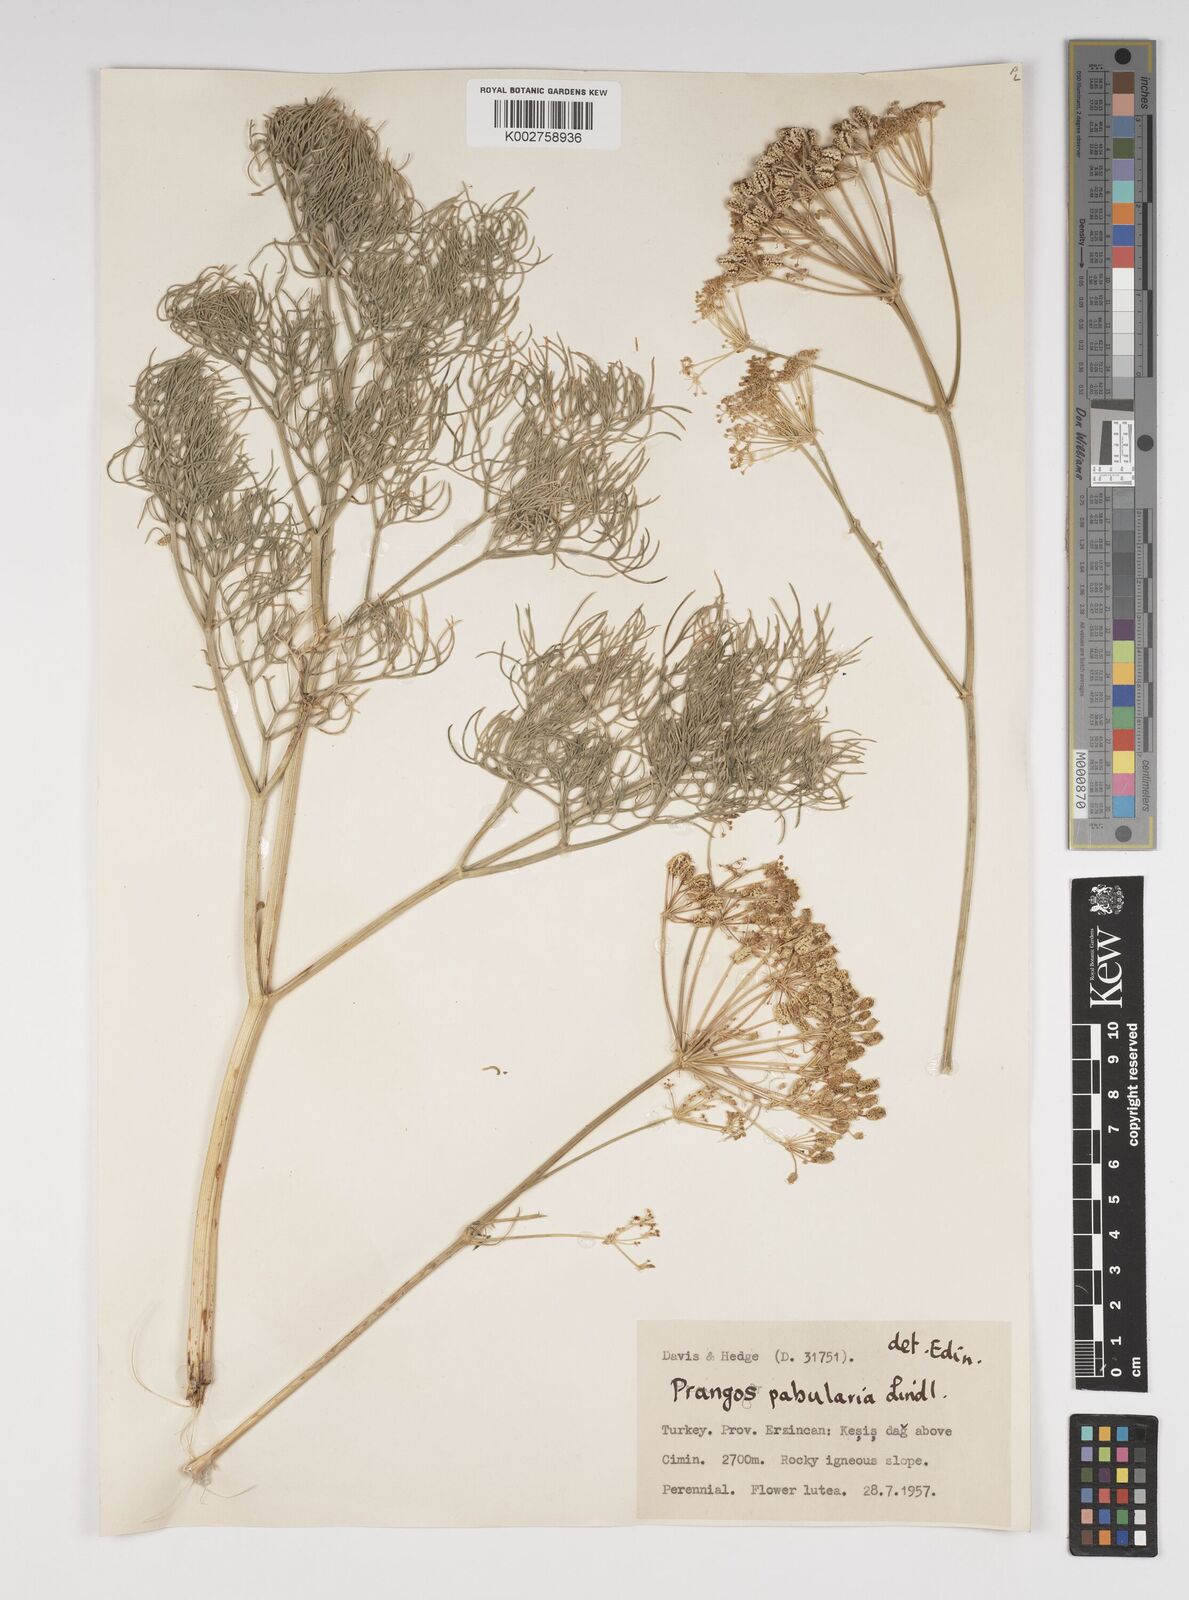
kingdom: Plantae
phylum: Tracheophyta
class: Magnoliopsida
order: Apiales
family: Apiaceae
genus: Prangos
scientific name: Prangos pabularia
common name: Yugan
